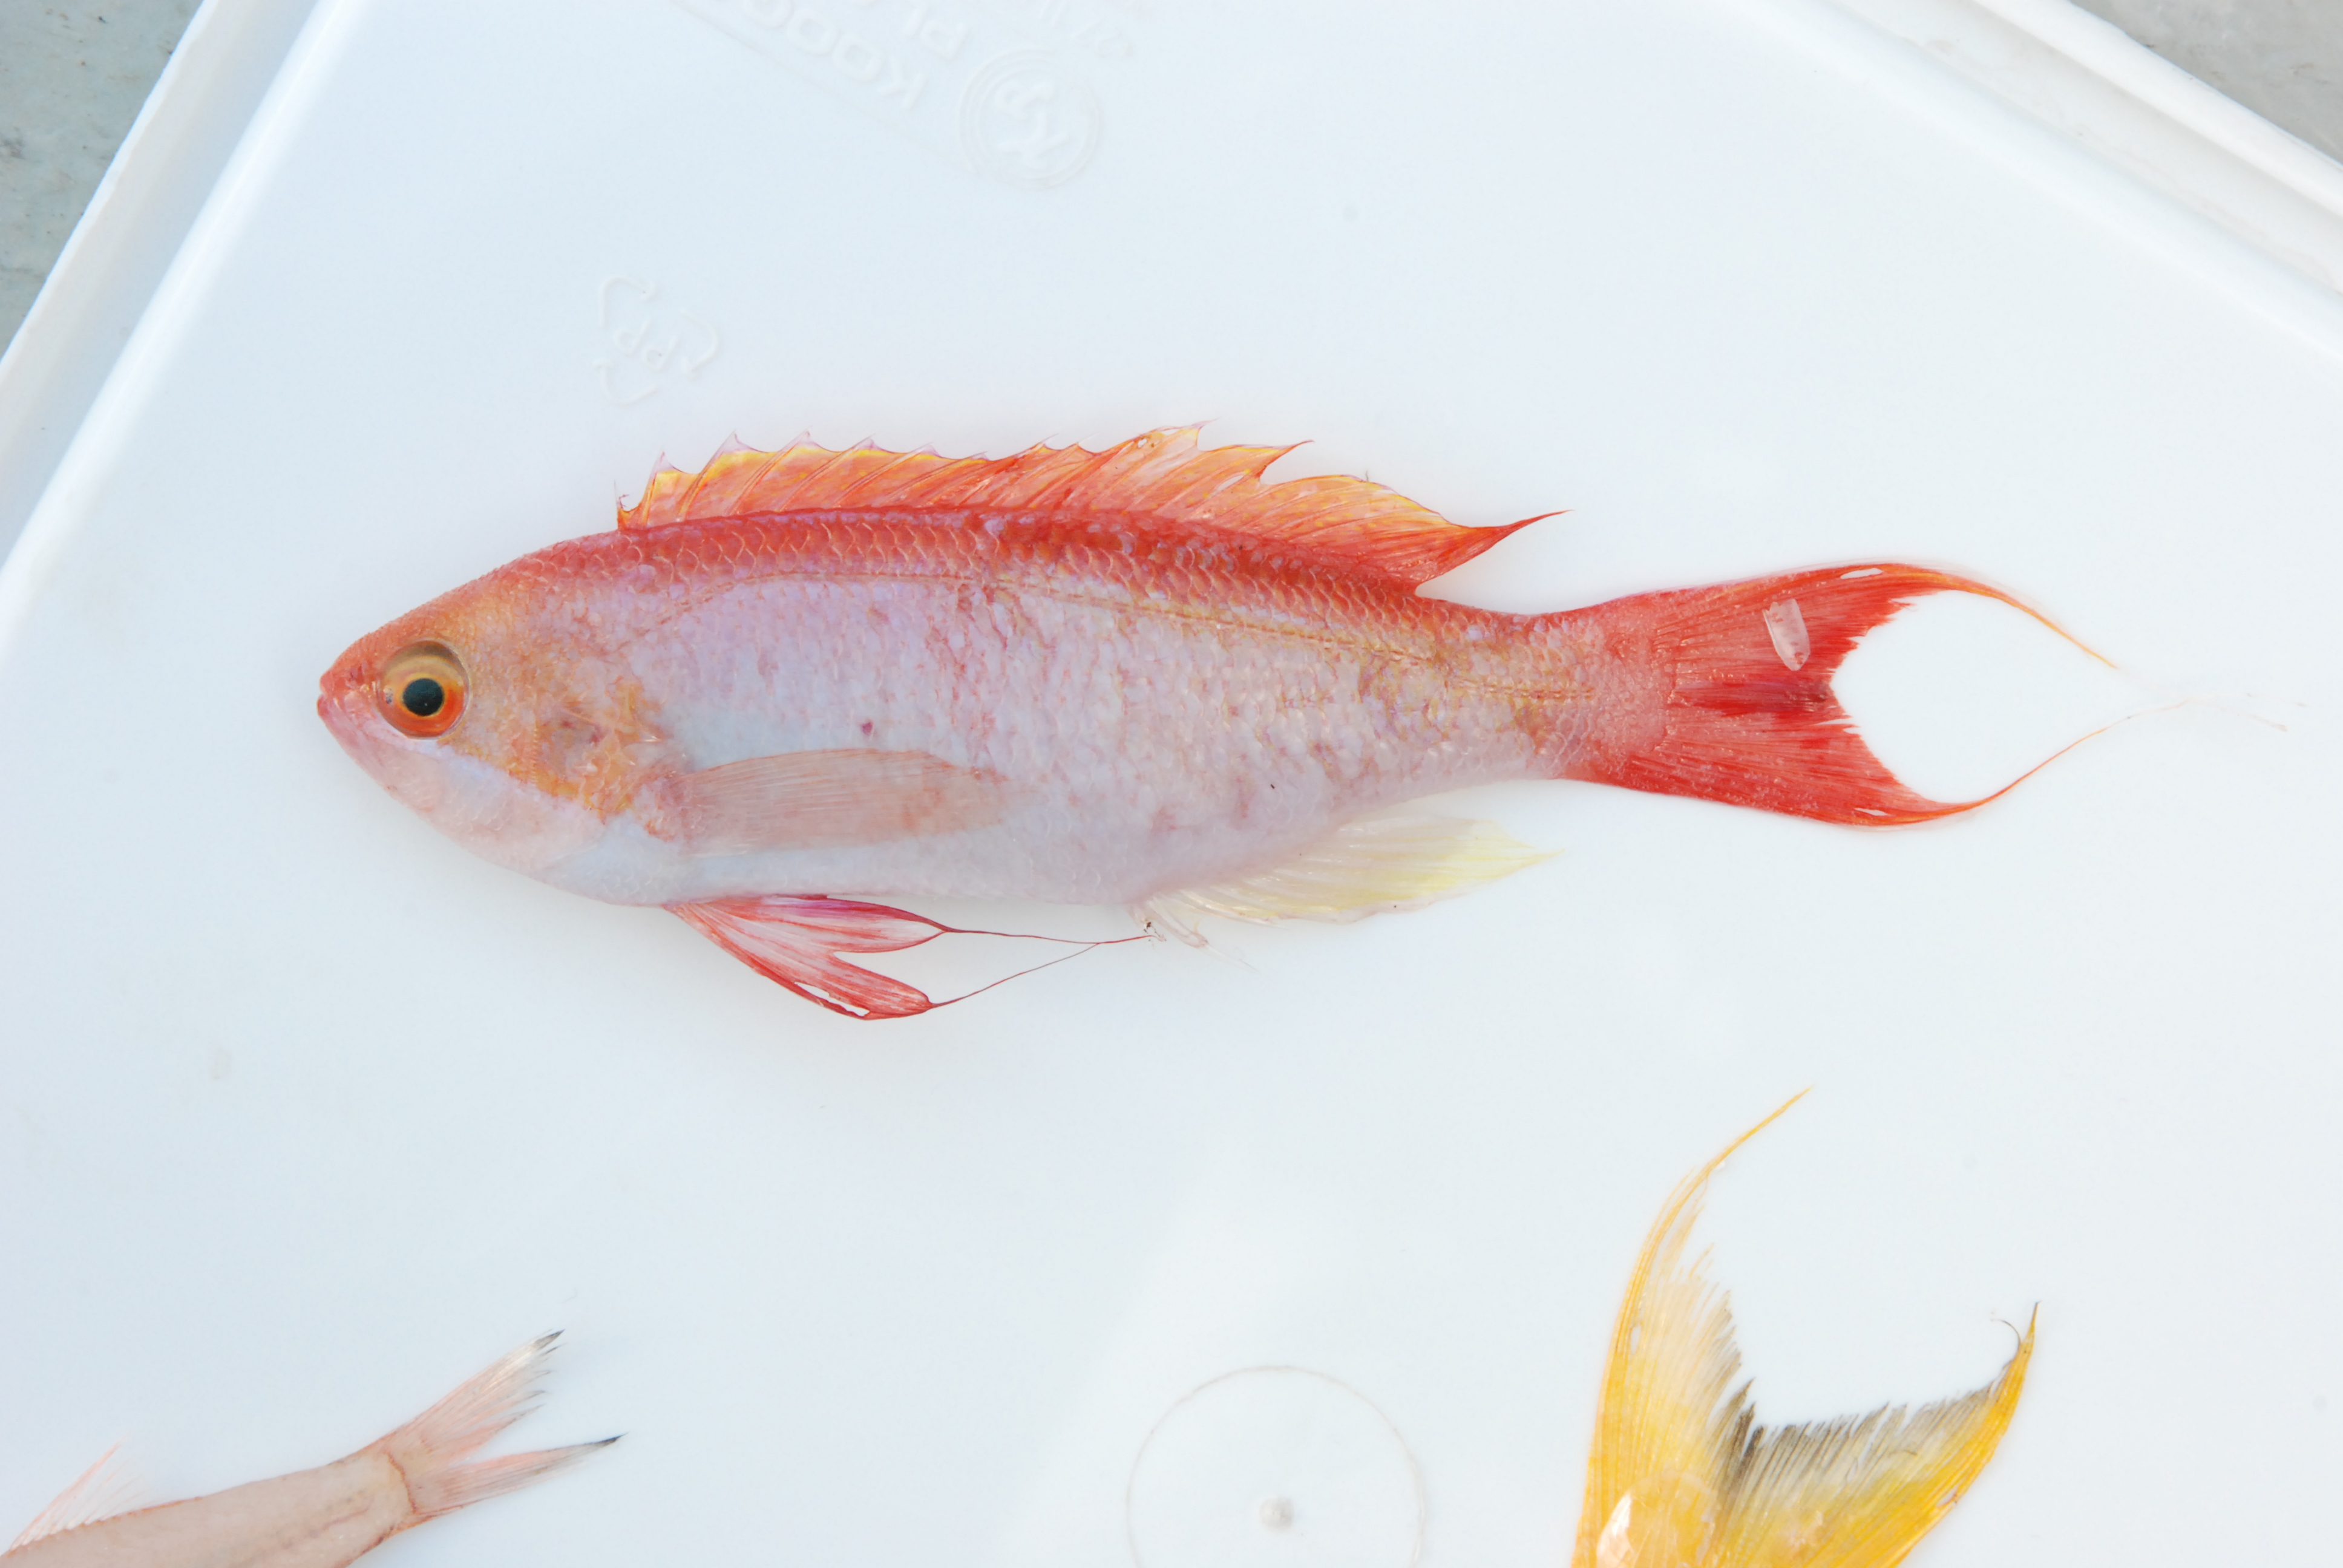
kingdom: Animalia
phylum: Chordata
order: Perciformes
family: Serranidae
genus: Pseudanthias
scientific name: Pseudanthias cooperi
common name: Red basslet
